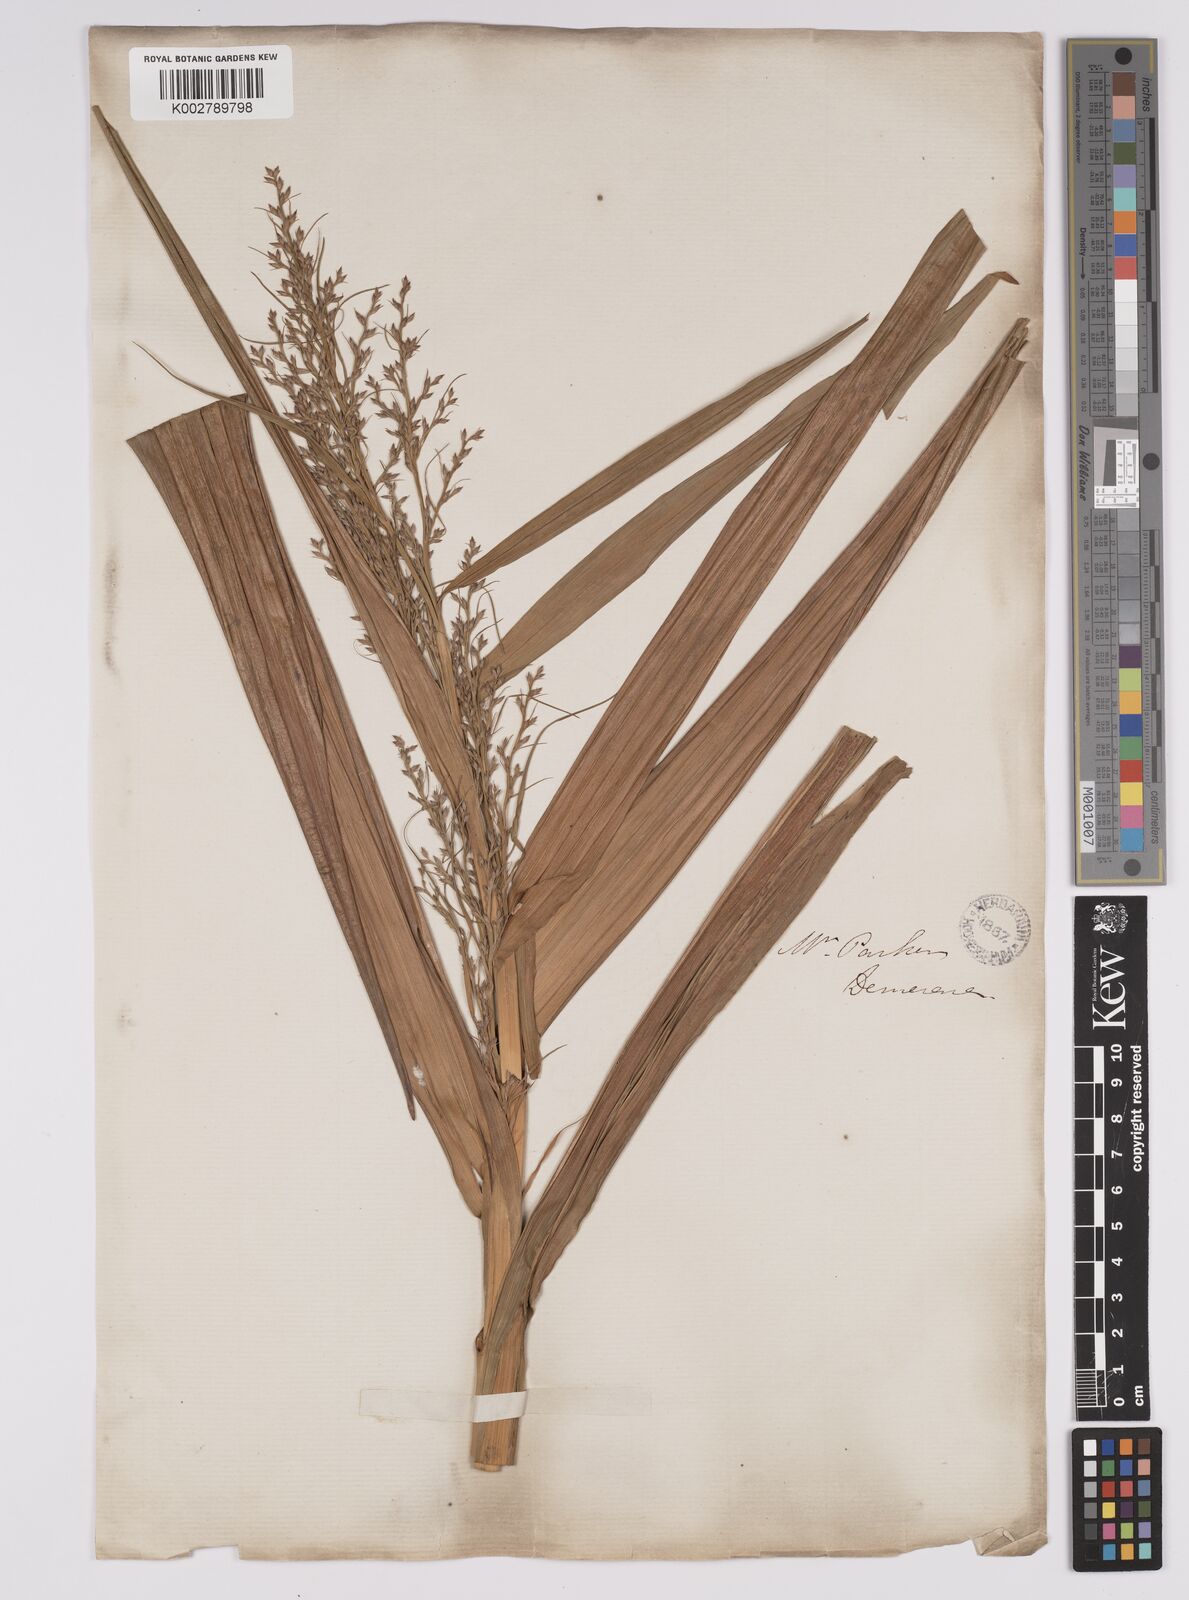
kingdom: Plantae
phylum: Tracheophyta
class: Liliopsida
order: Poales
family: Cyperaceae
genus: Scleria
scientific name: Scleria
